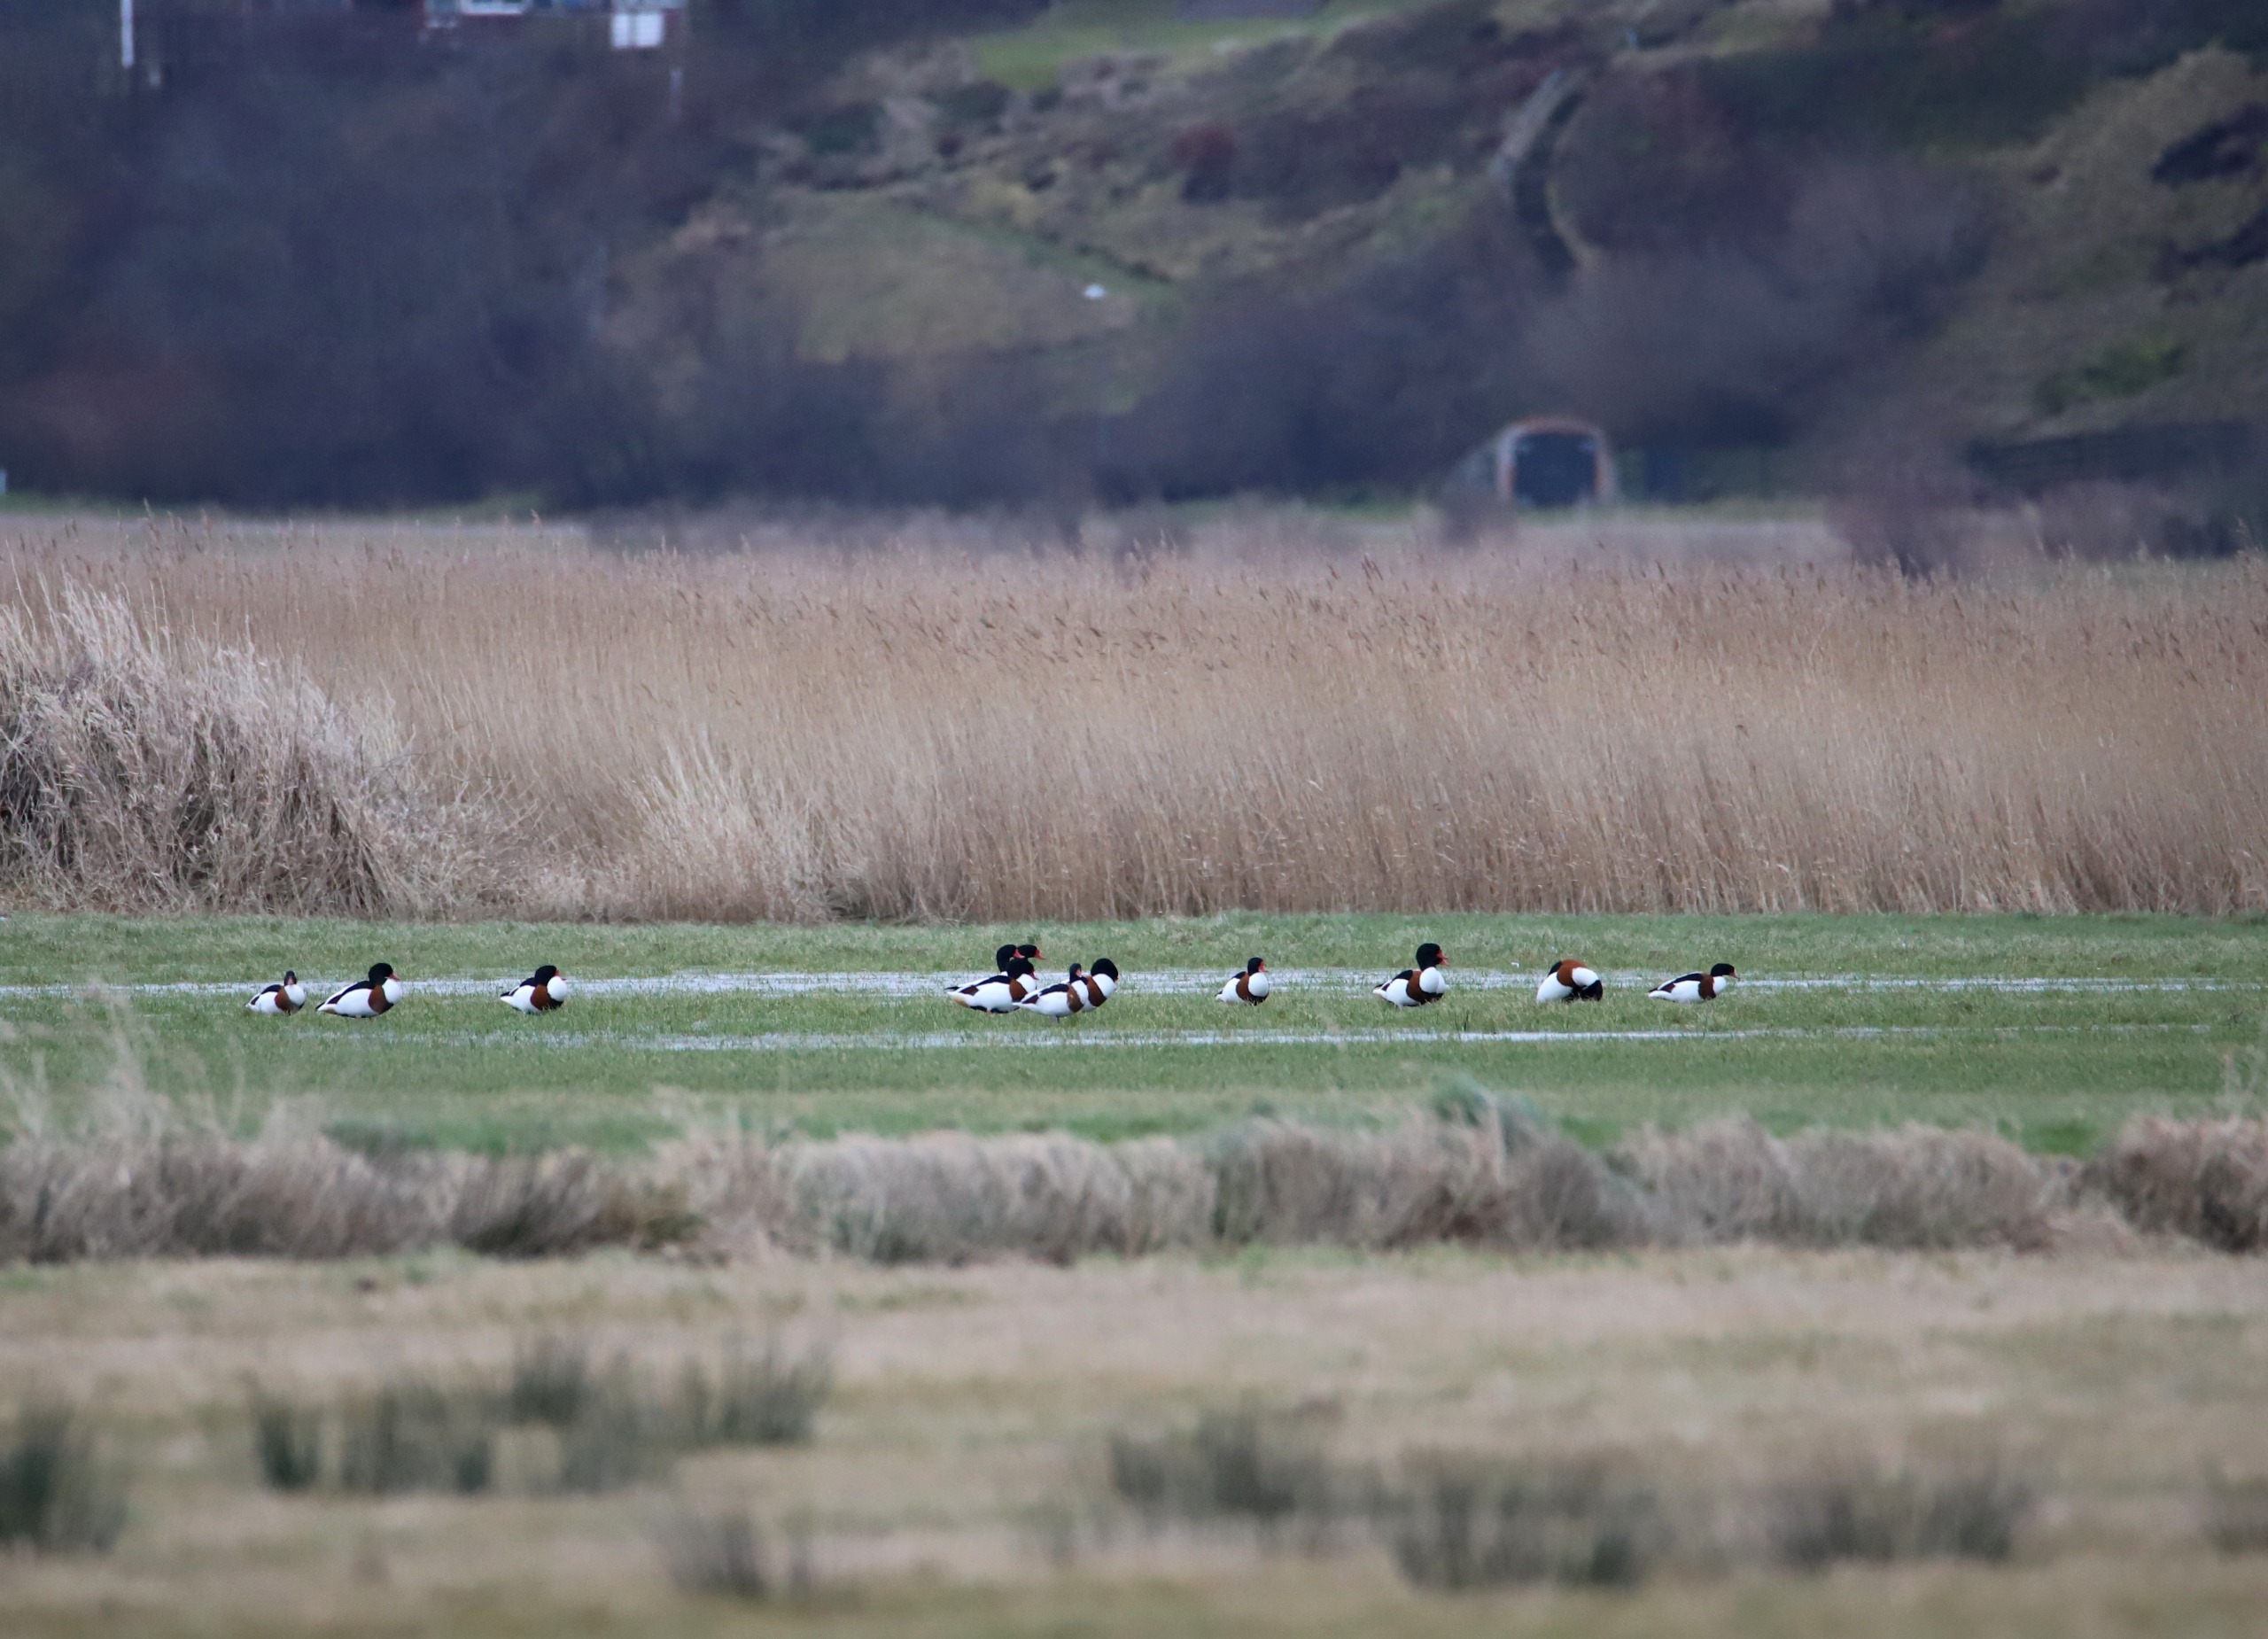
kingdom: Animalia
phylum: Chordata
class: Aves
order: Anseriformes
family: Anatidae
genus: Tadorna
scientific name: Tadorna tadorna
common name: Gravand
